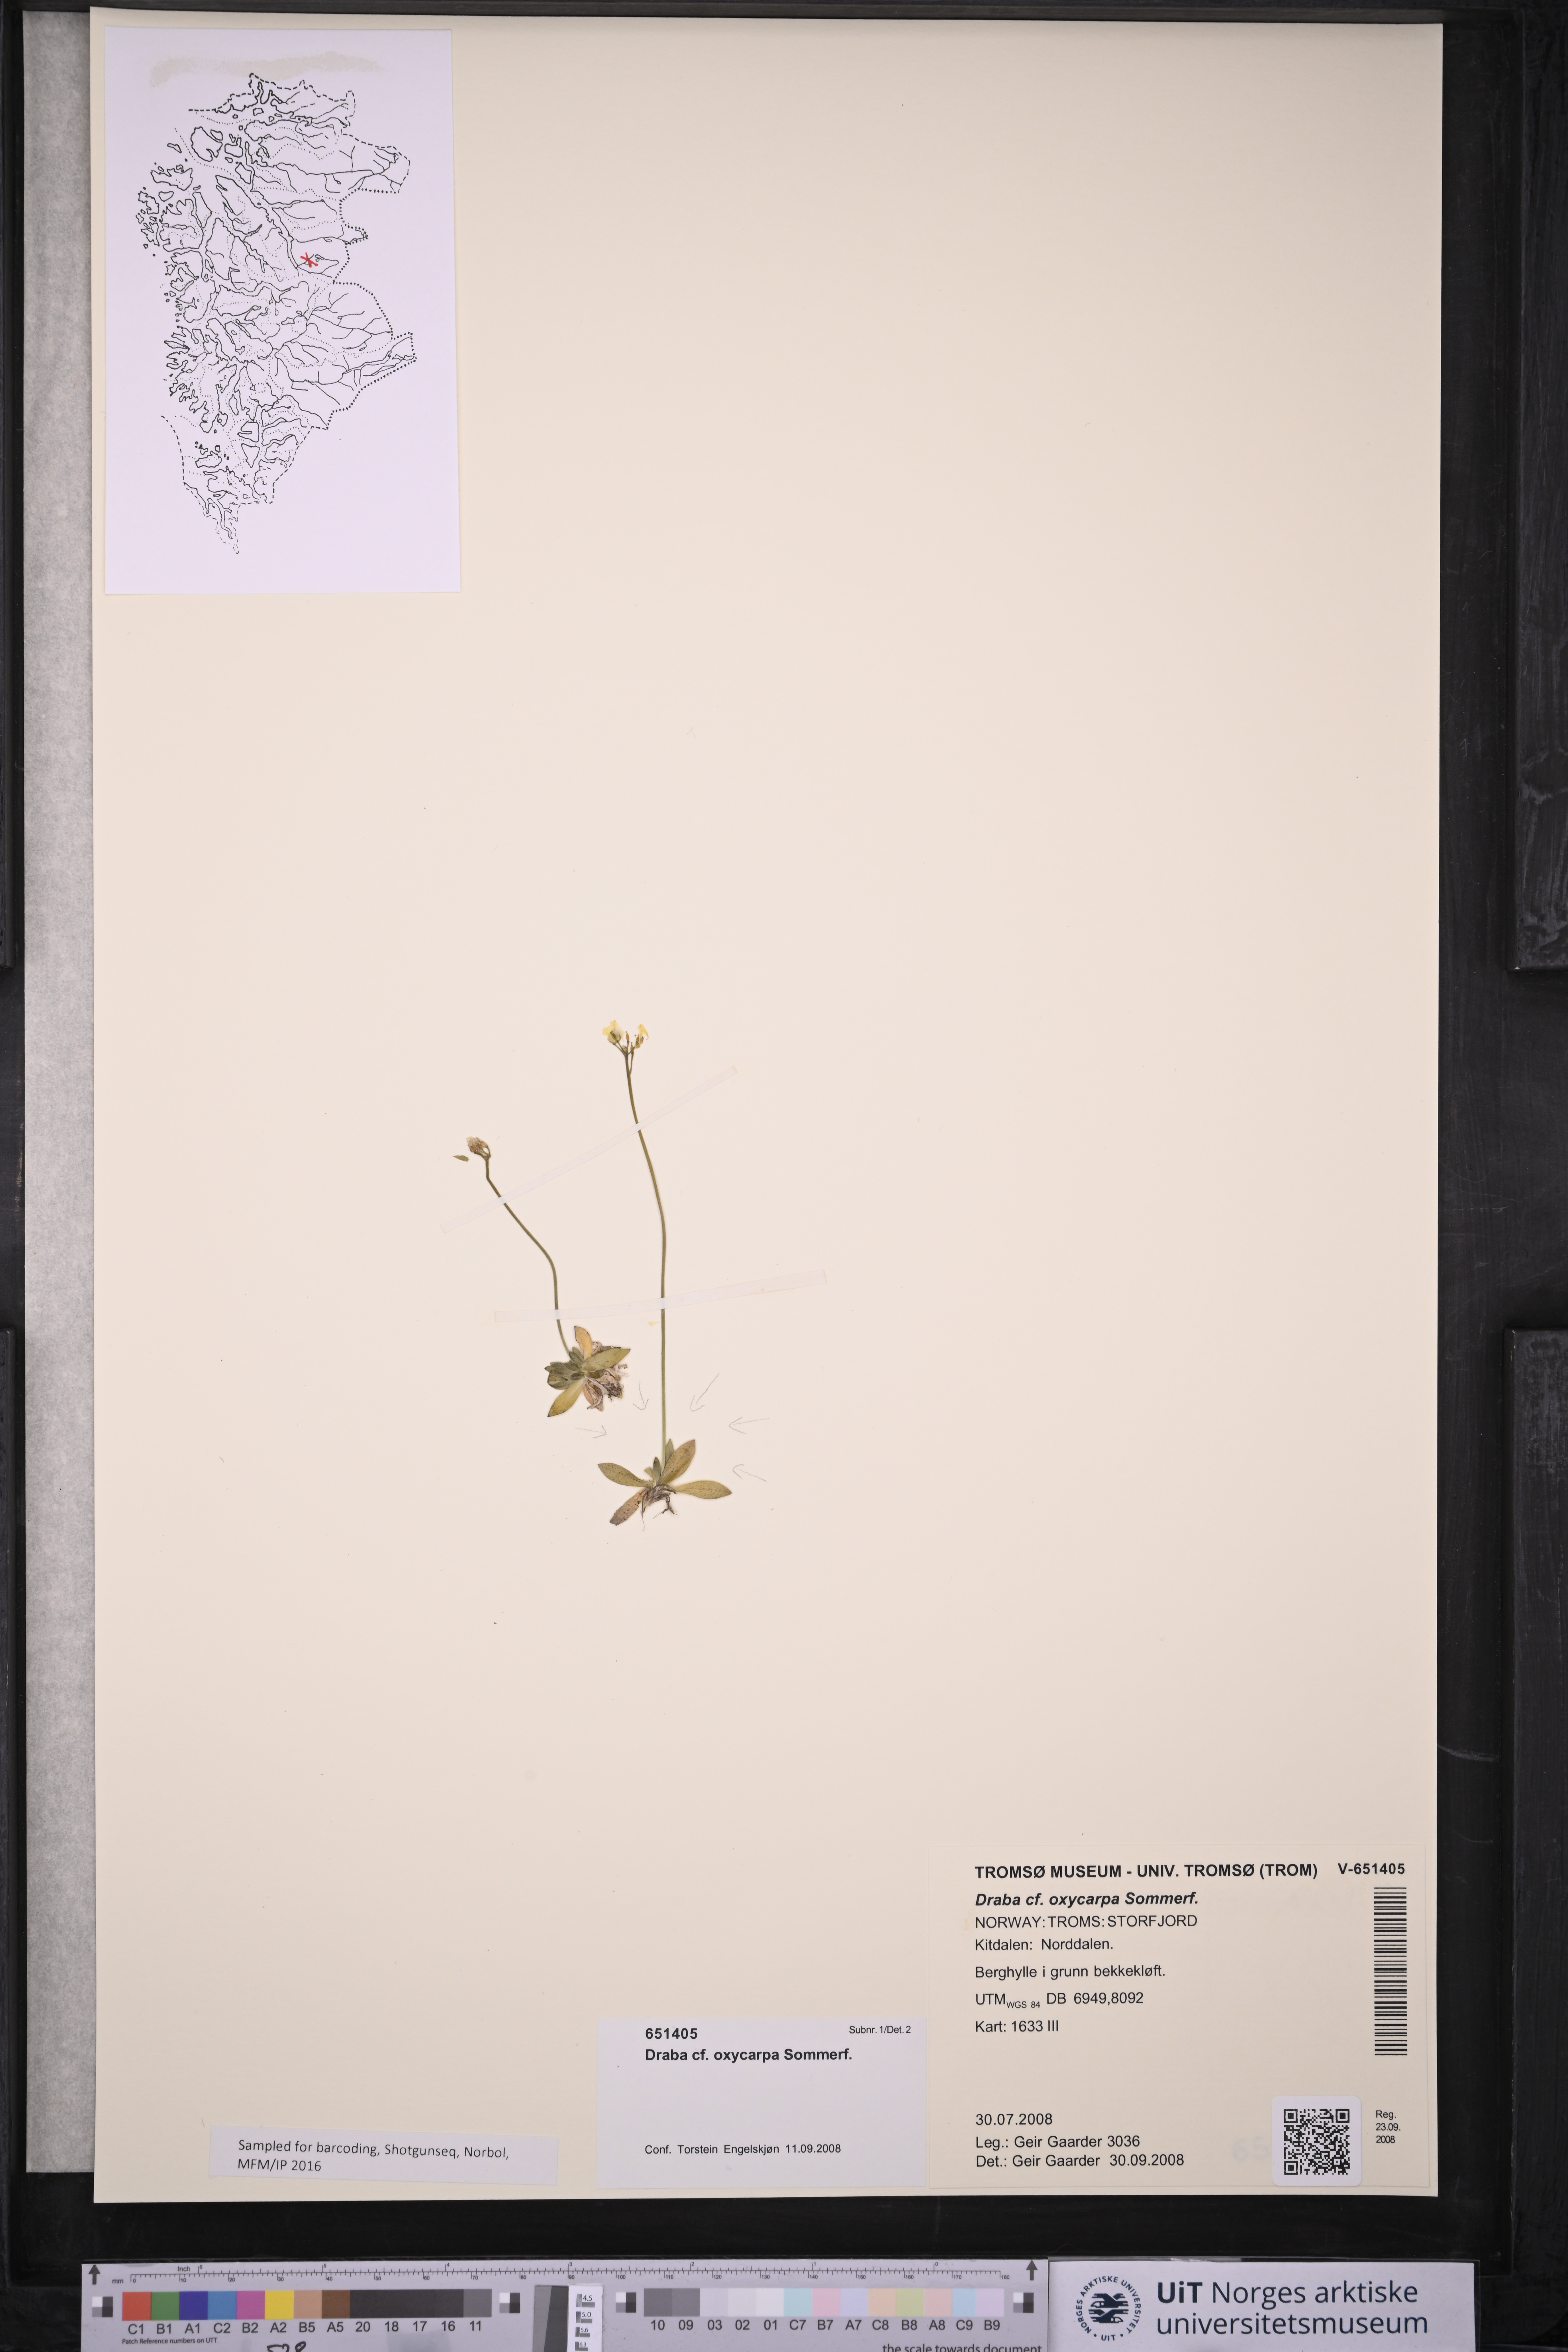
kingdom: Plantae
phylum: Tracheophyta
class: Magnoliopsida
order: Brassicales
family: Brassicaceae
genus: Draba
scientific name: Draba oxycarpa
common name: Sharp-fruited whitlow-grass
